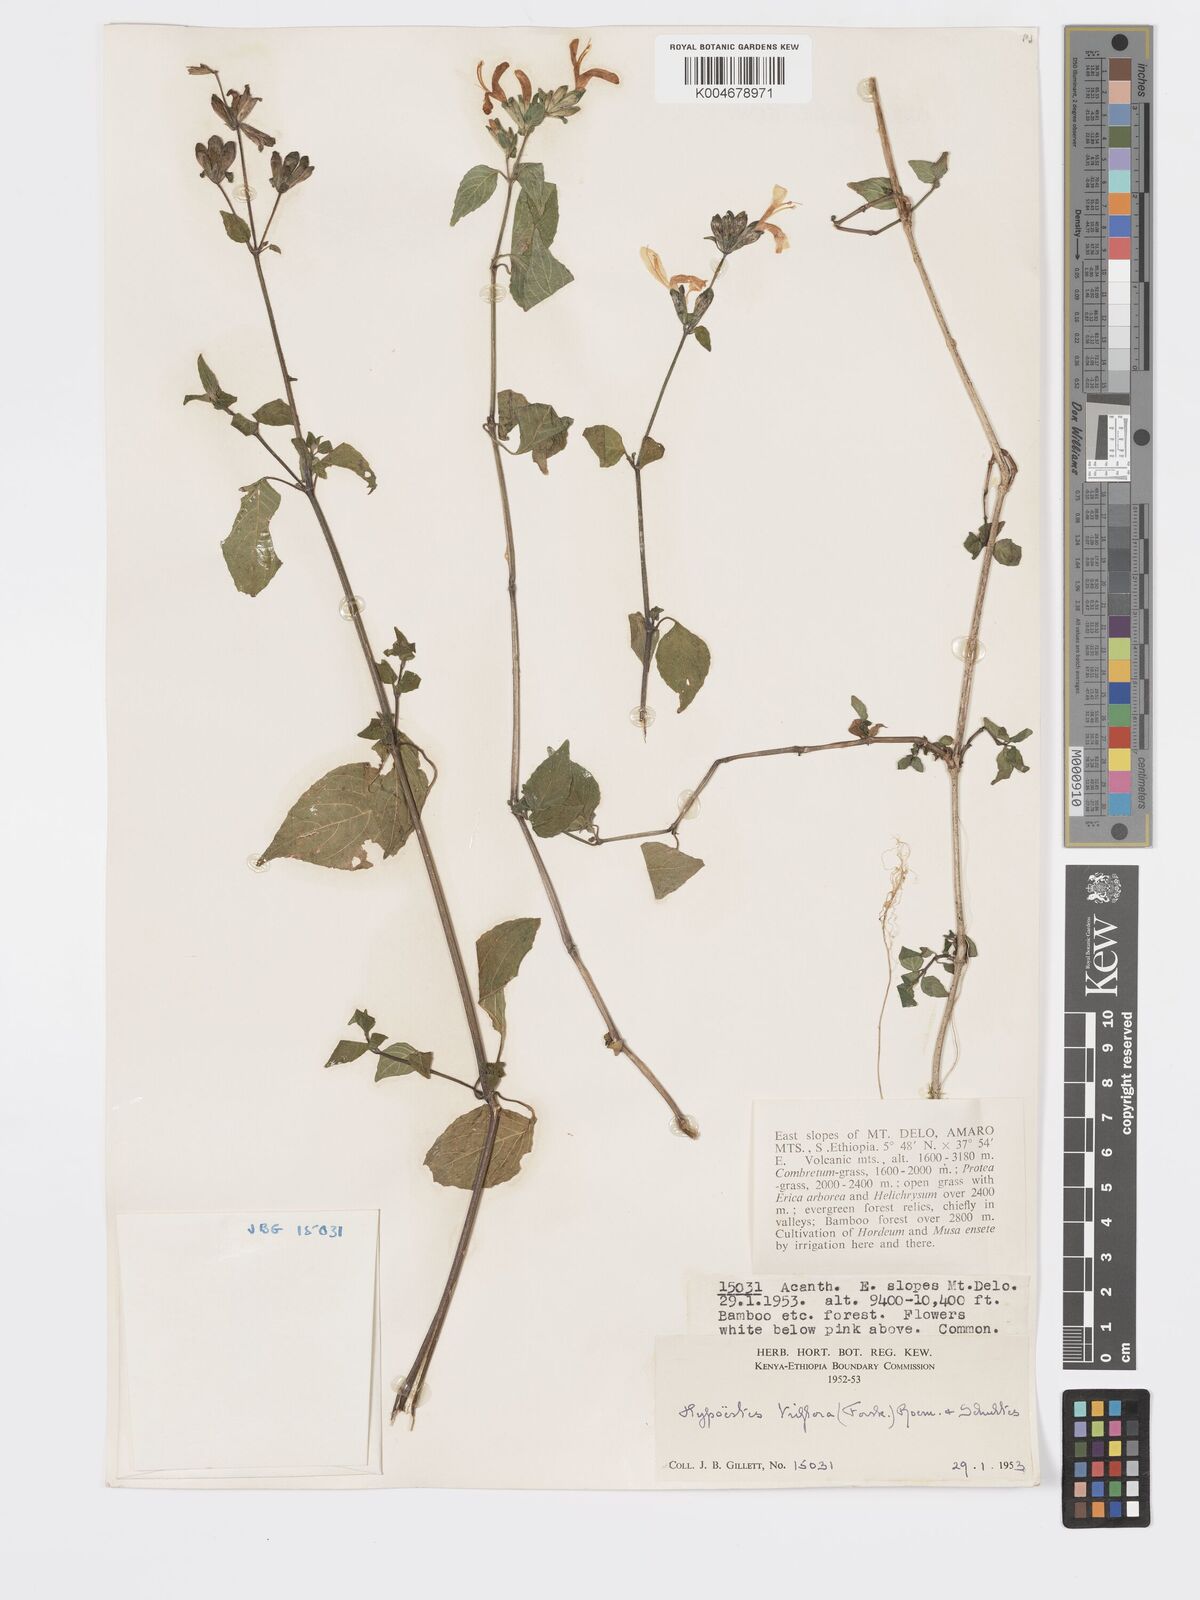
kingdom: Plantae
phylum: Tracheophyta
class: Magnoliopsida
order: Lamiales
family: Acanthaceae
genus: Hypoestes
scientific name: Hypoestes triflora
